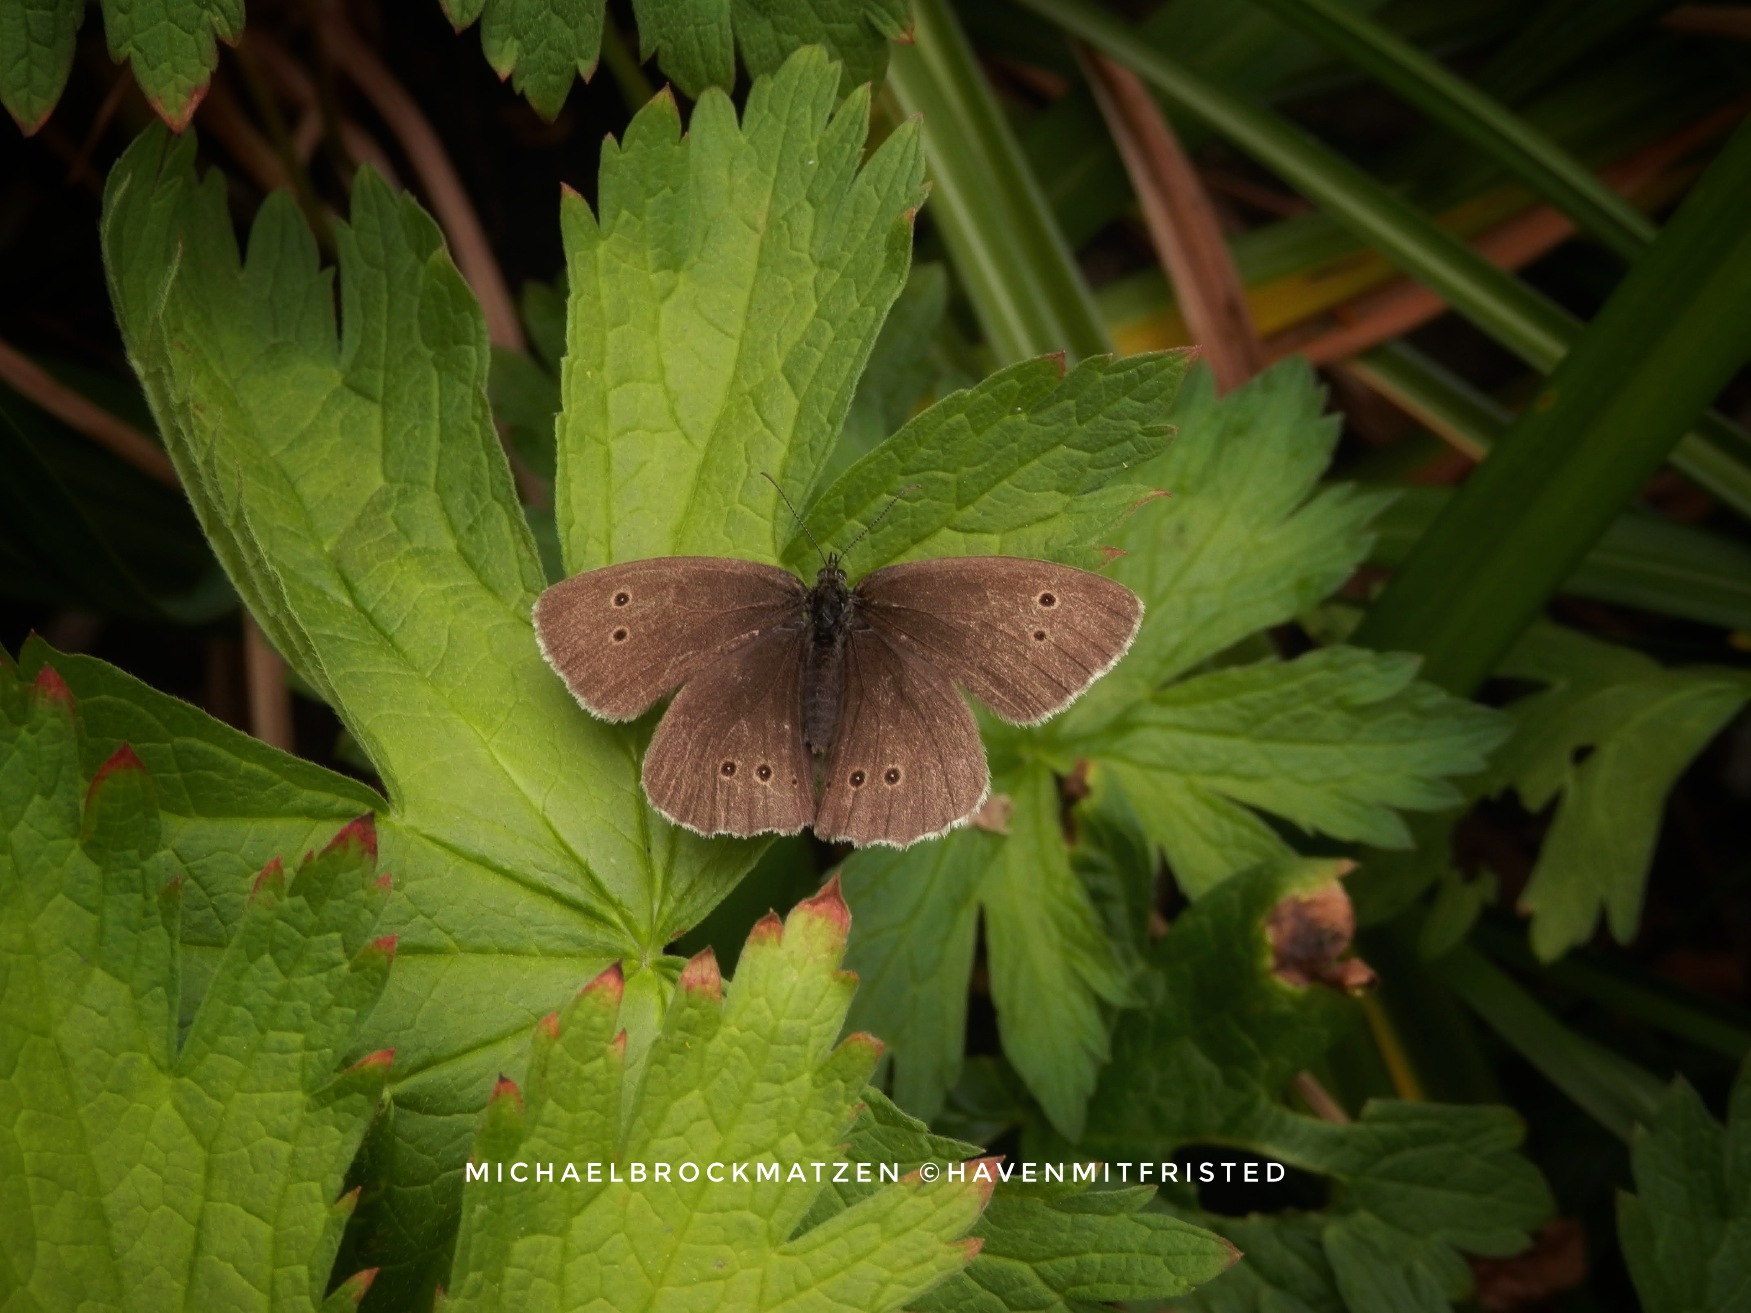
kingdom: Animalia
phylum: Arthropoda
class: Insecta
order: Lepidoptera
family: Nymphalidae
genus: Aphantopus
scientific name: Aphantopus hyperantus
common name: Engrandøje
